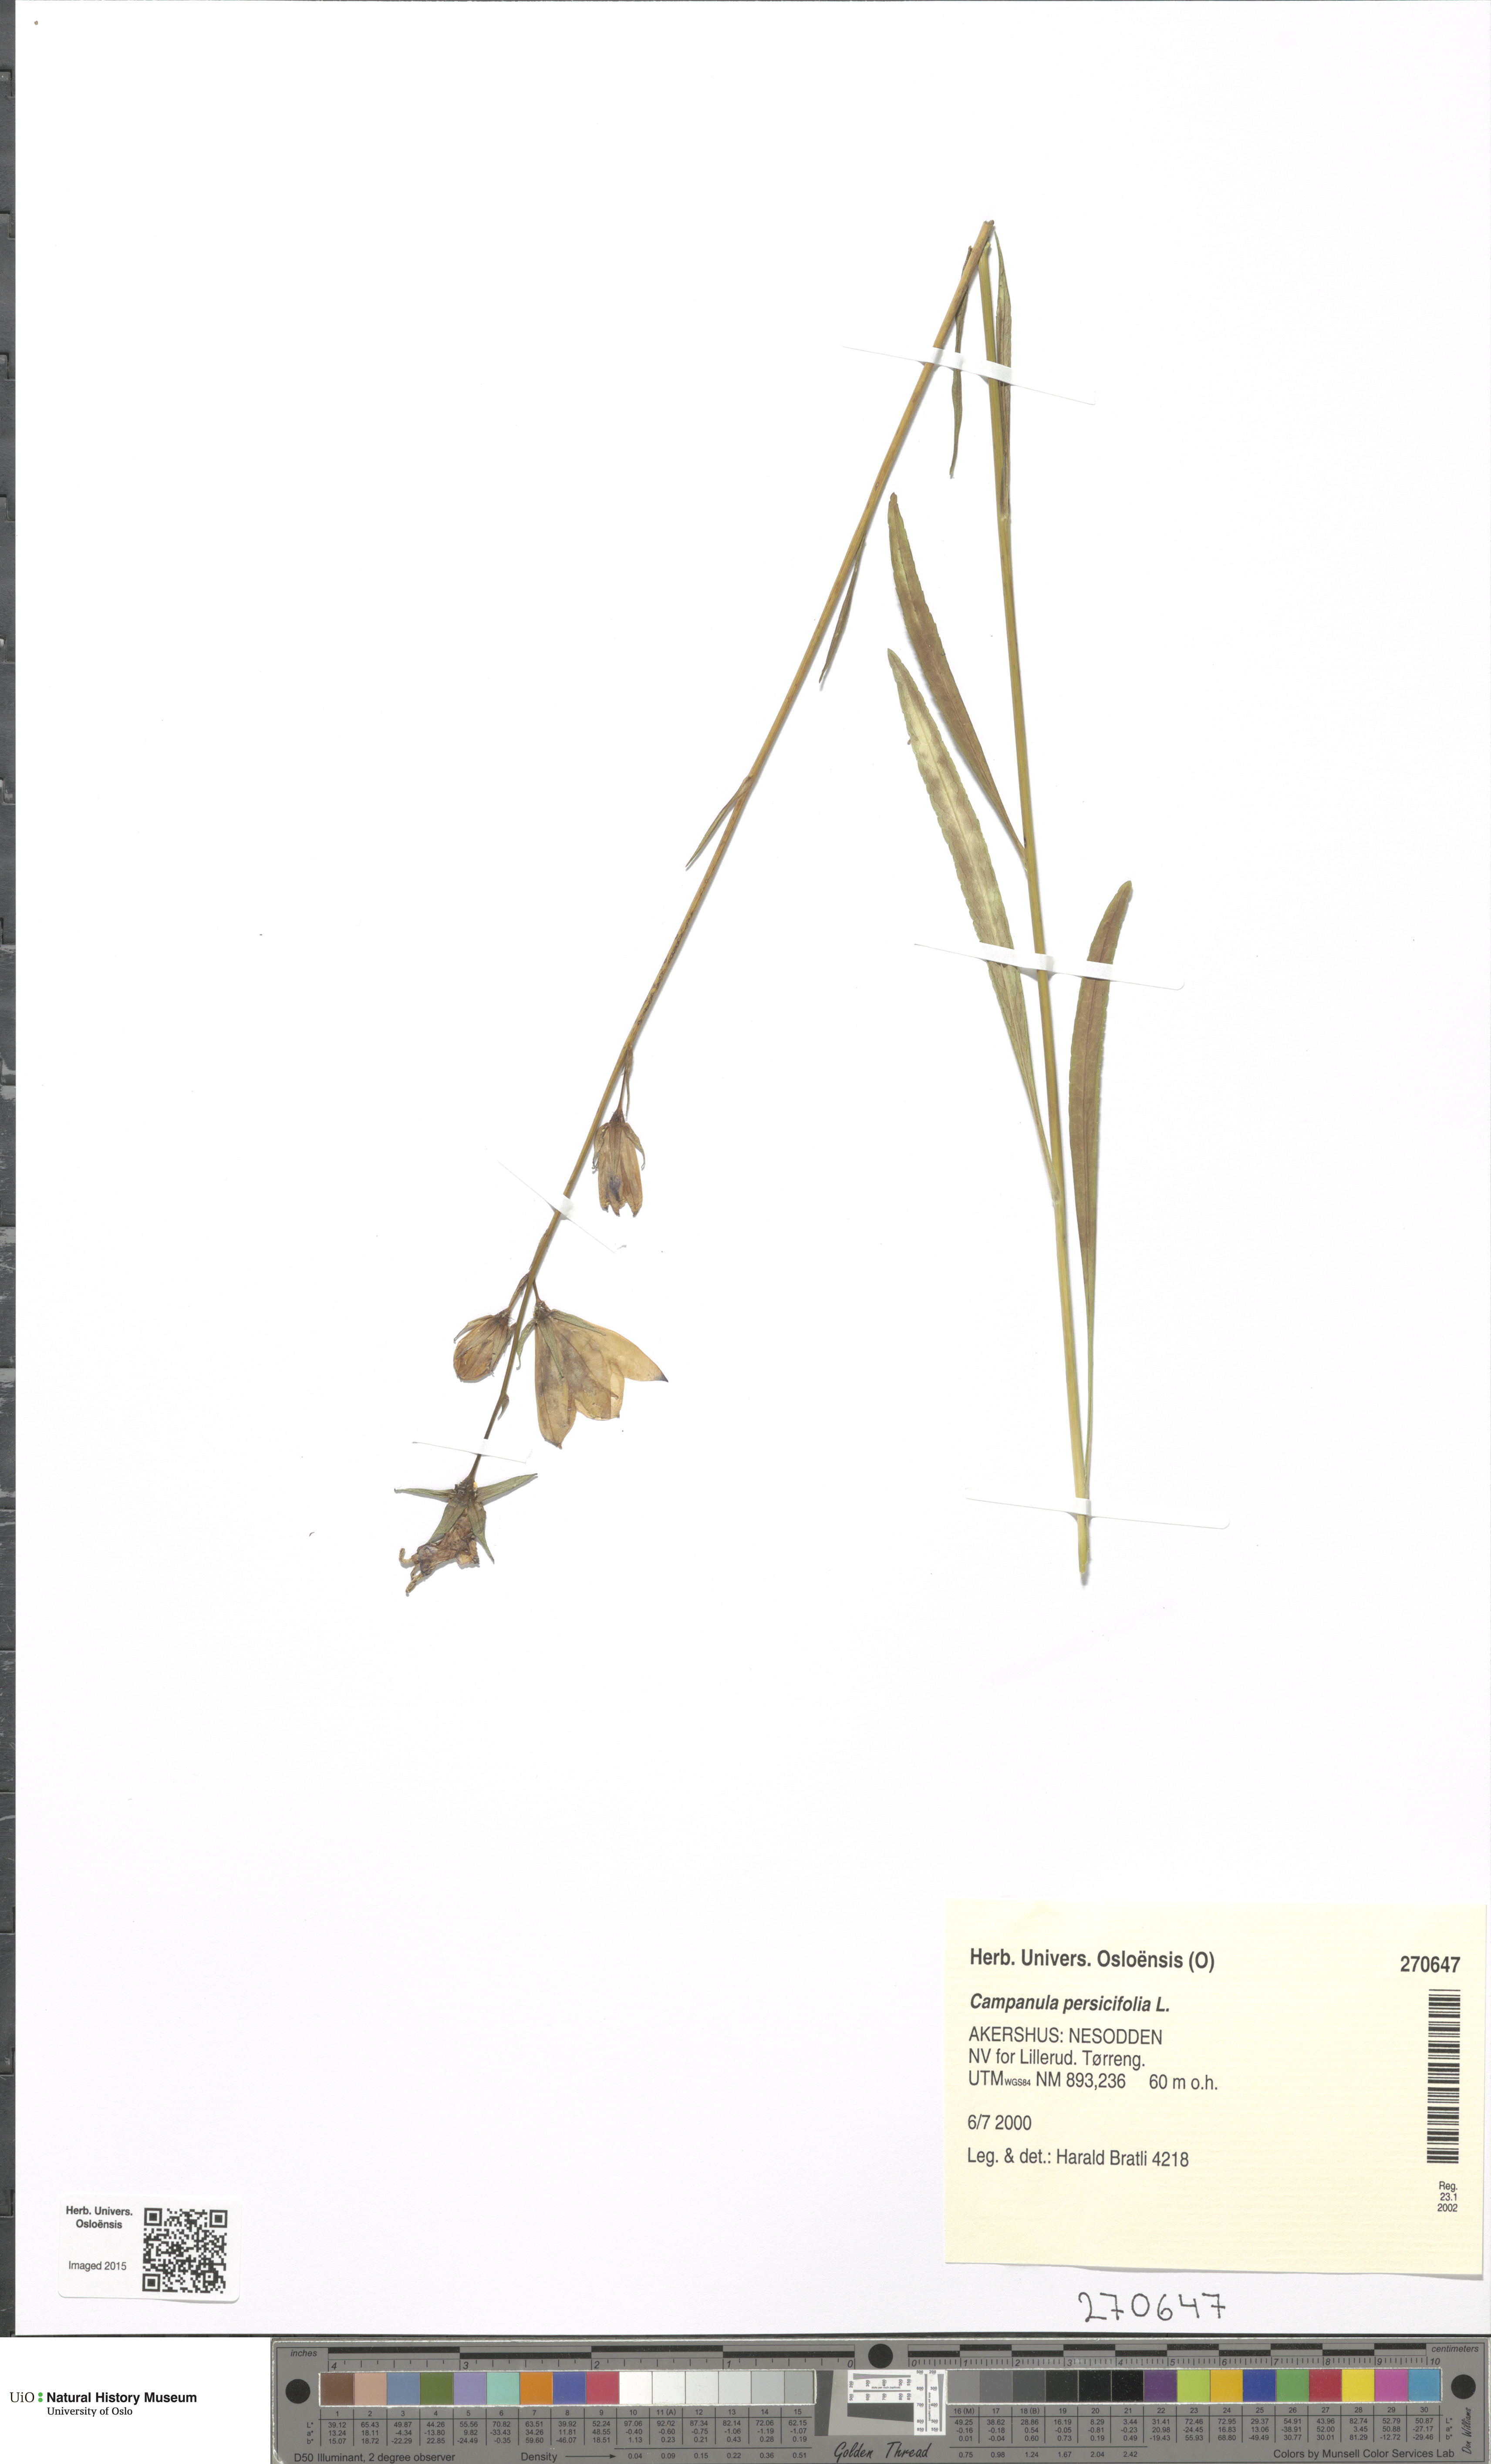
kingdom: Plantae
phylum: Tracheophyta
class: Magnoliopsida
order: Asterales
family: Campanulaceae
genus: Campanula
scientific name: Campanula persicifolia
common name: Peach-leaved bellflower
